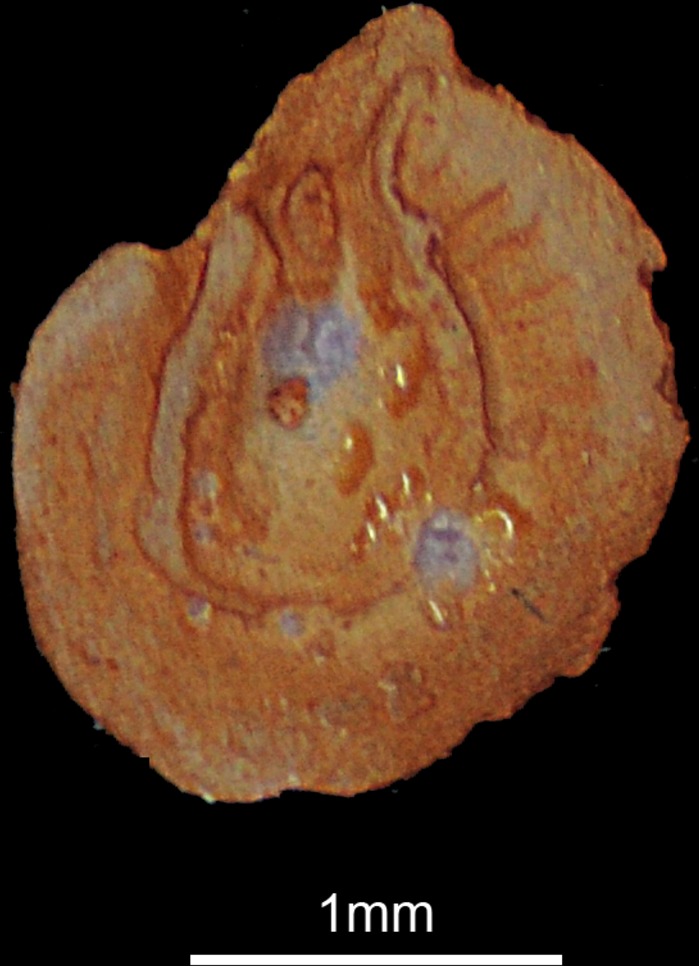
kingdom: Animalia
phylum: Chordata
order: Cypriniformes
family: Cyprinidae
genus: Alburnus
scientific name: Alburnus mossulensis
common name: Mossul bleak
